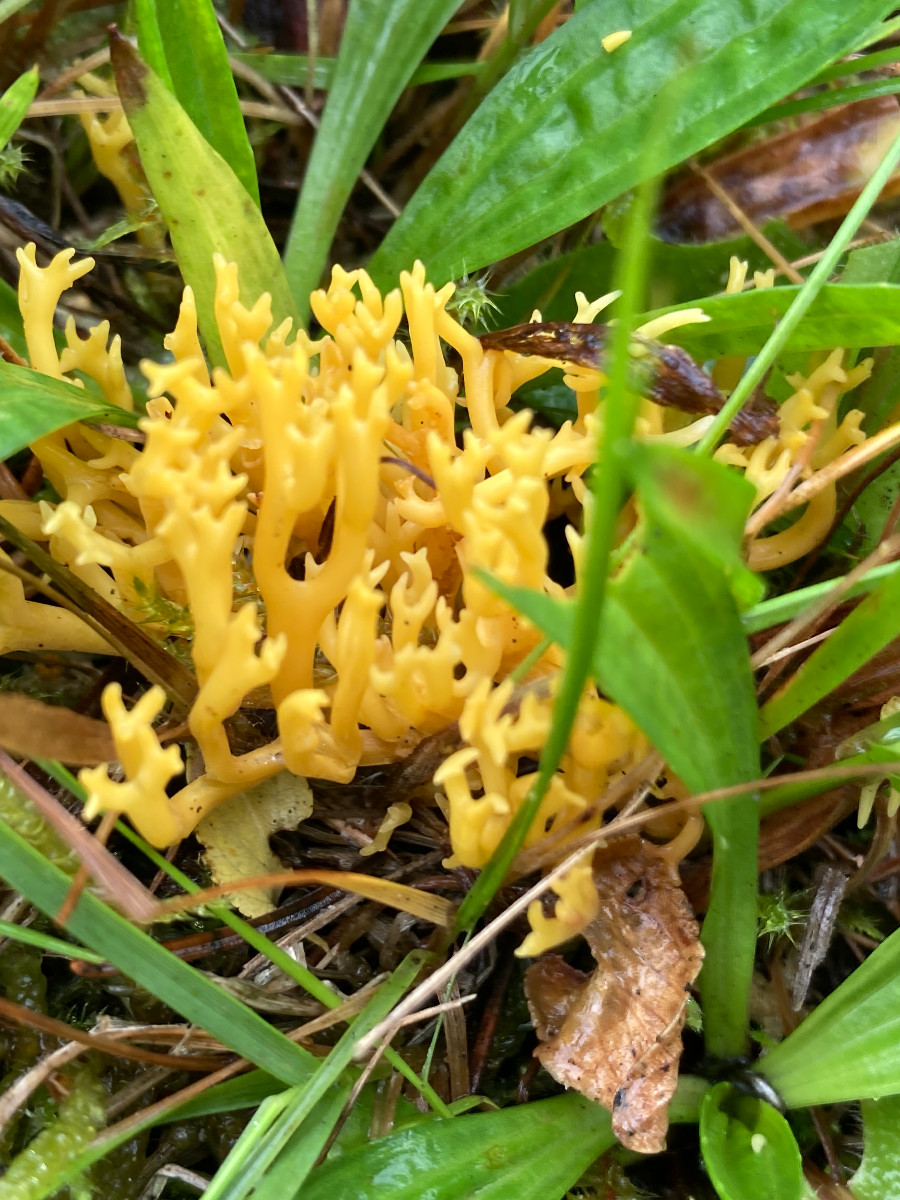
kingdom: Fungi
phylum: Basidiomycota
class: Agaricomycetes
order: Agaricales
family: Clavariaceae
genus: Clavulinopsis
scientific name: Clavulinopsis corniculata
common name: eng-køllesvamp
